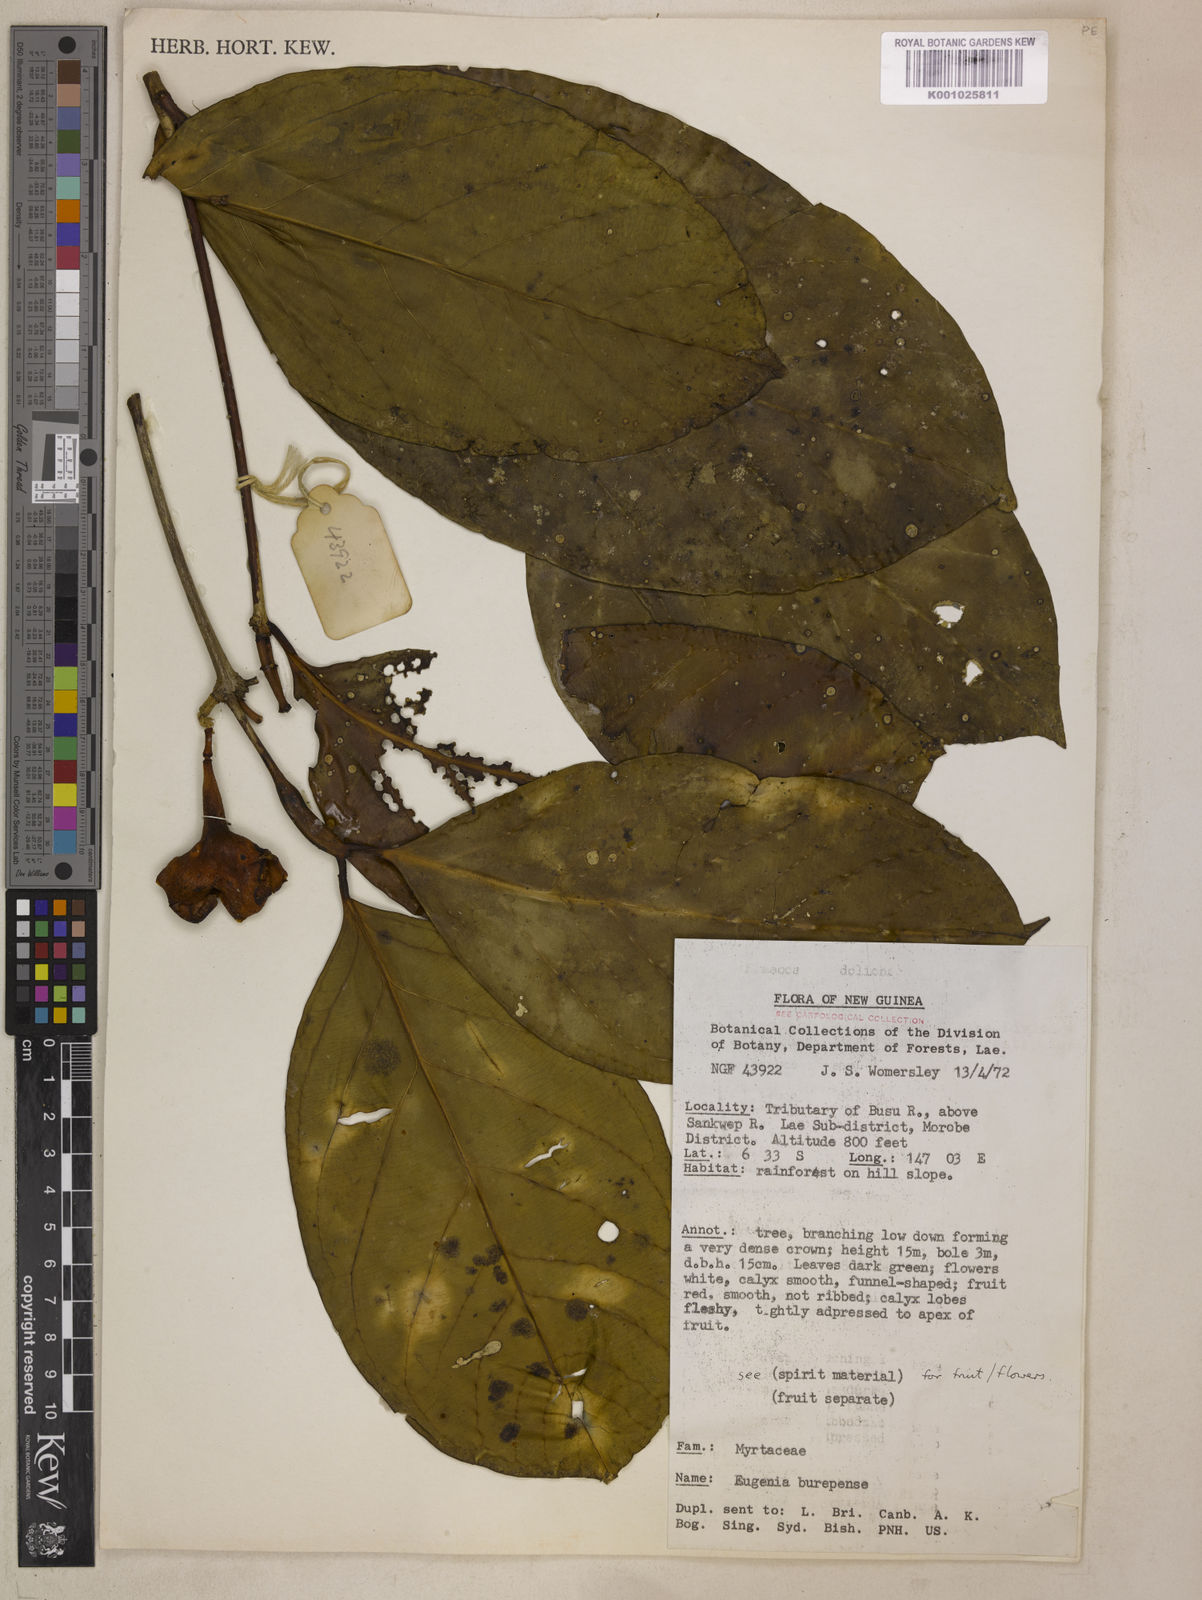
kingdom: Plantae
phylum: Tracheophyta
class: Magnoliopsida
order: Myrtales
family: Myrtaceae
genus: Syzygium
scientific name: Syzygium burepense
